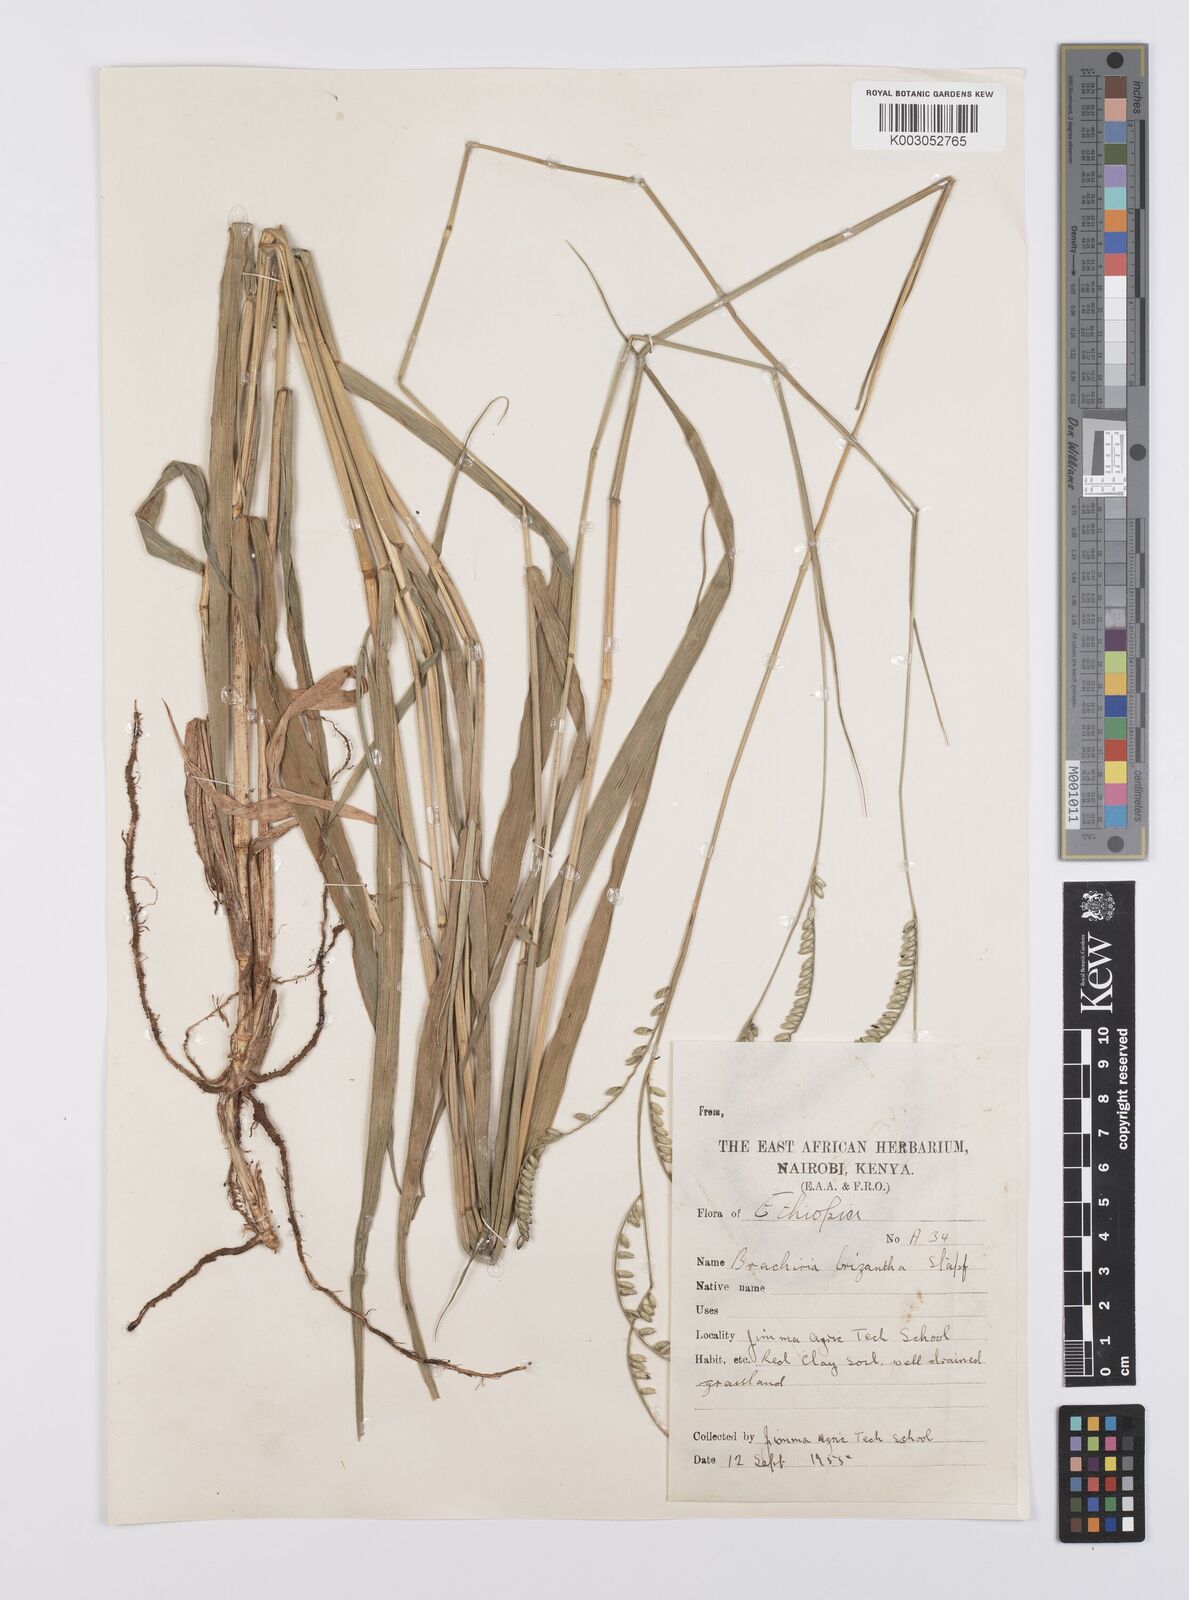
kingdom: Plantae
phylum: Tracheophyta
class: Liliopsida
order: Poales
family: Poaceae
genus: Urochloa
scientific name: Urochloa brizantha
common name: Palisade signalgrass
